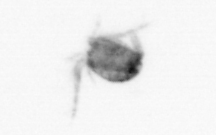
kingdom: Animalia
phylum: Arthropoda
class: Copepoda
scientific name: Copepoda
